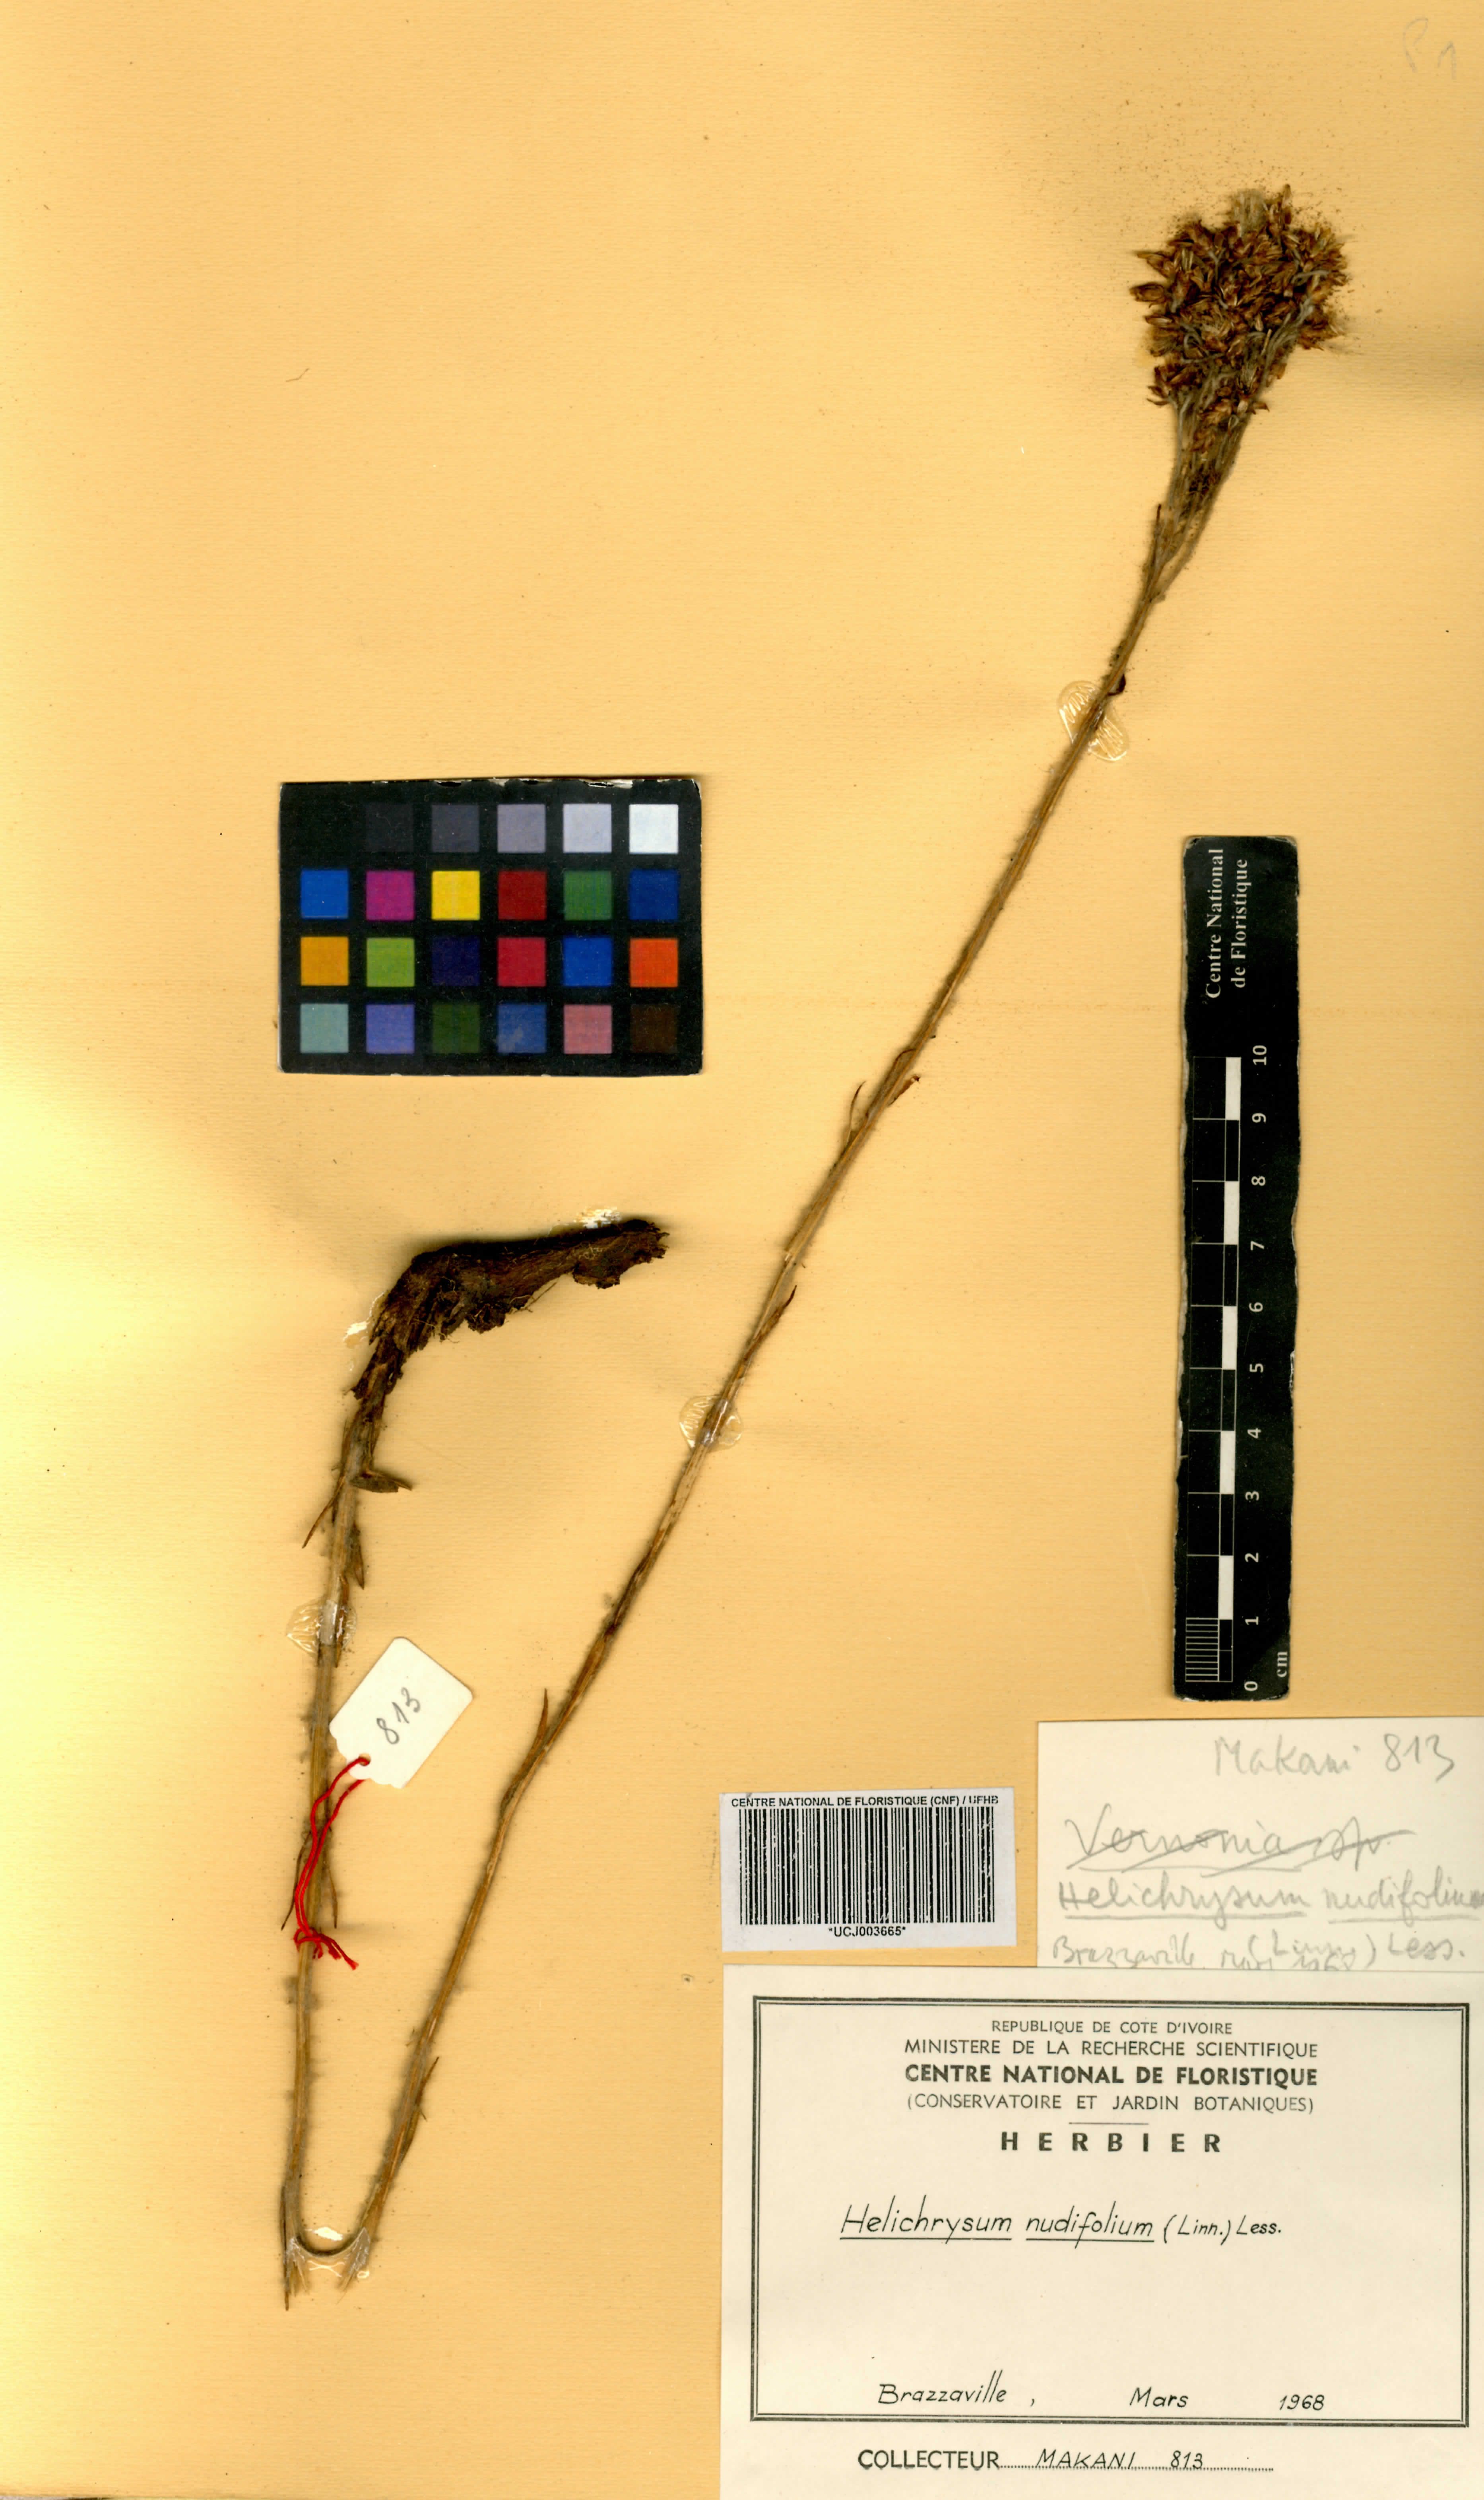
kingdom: Plantae
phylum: Tracheophyta
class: Magnoliopsida
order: Asterales
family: Asteraceae
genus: Helichrysum
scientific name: Helichrysum nudifolium
